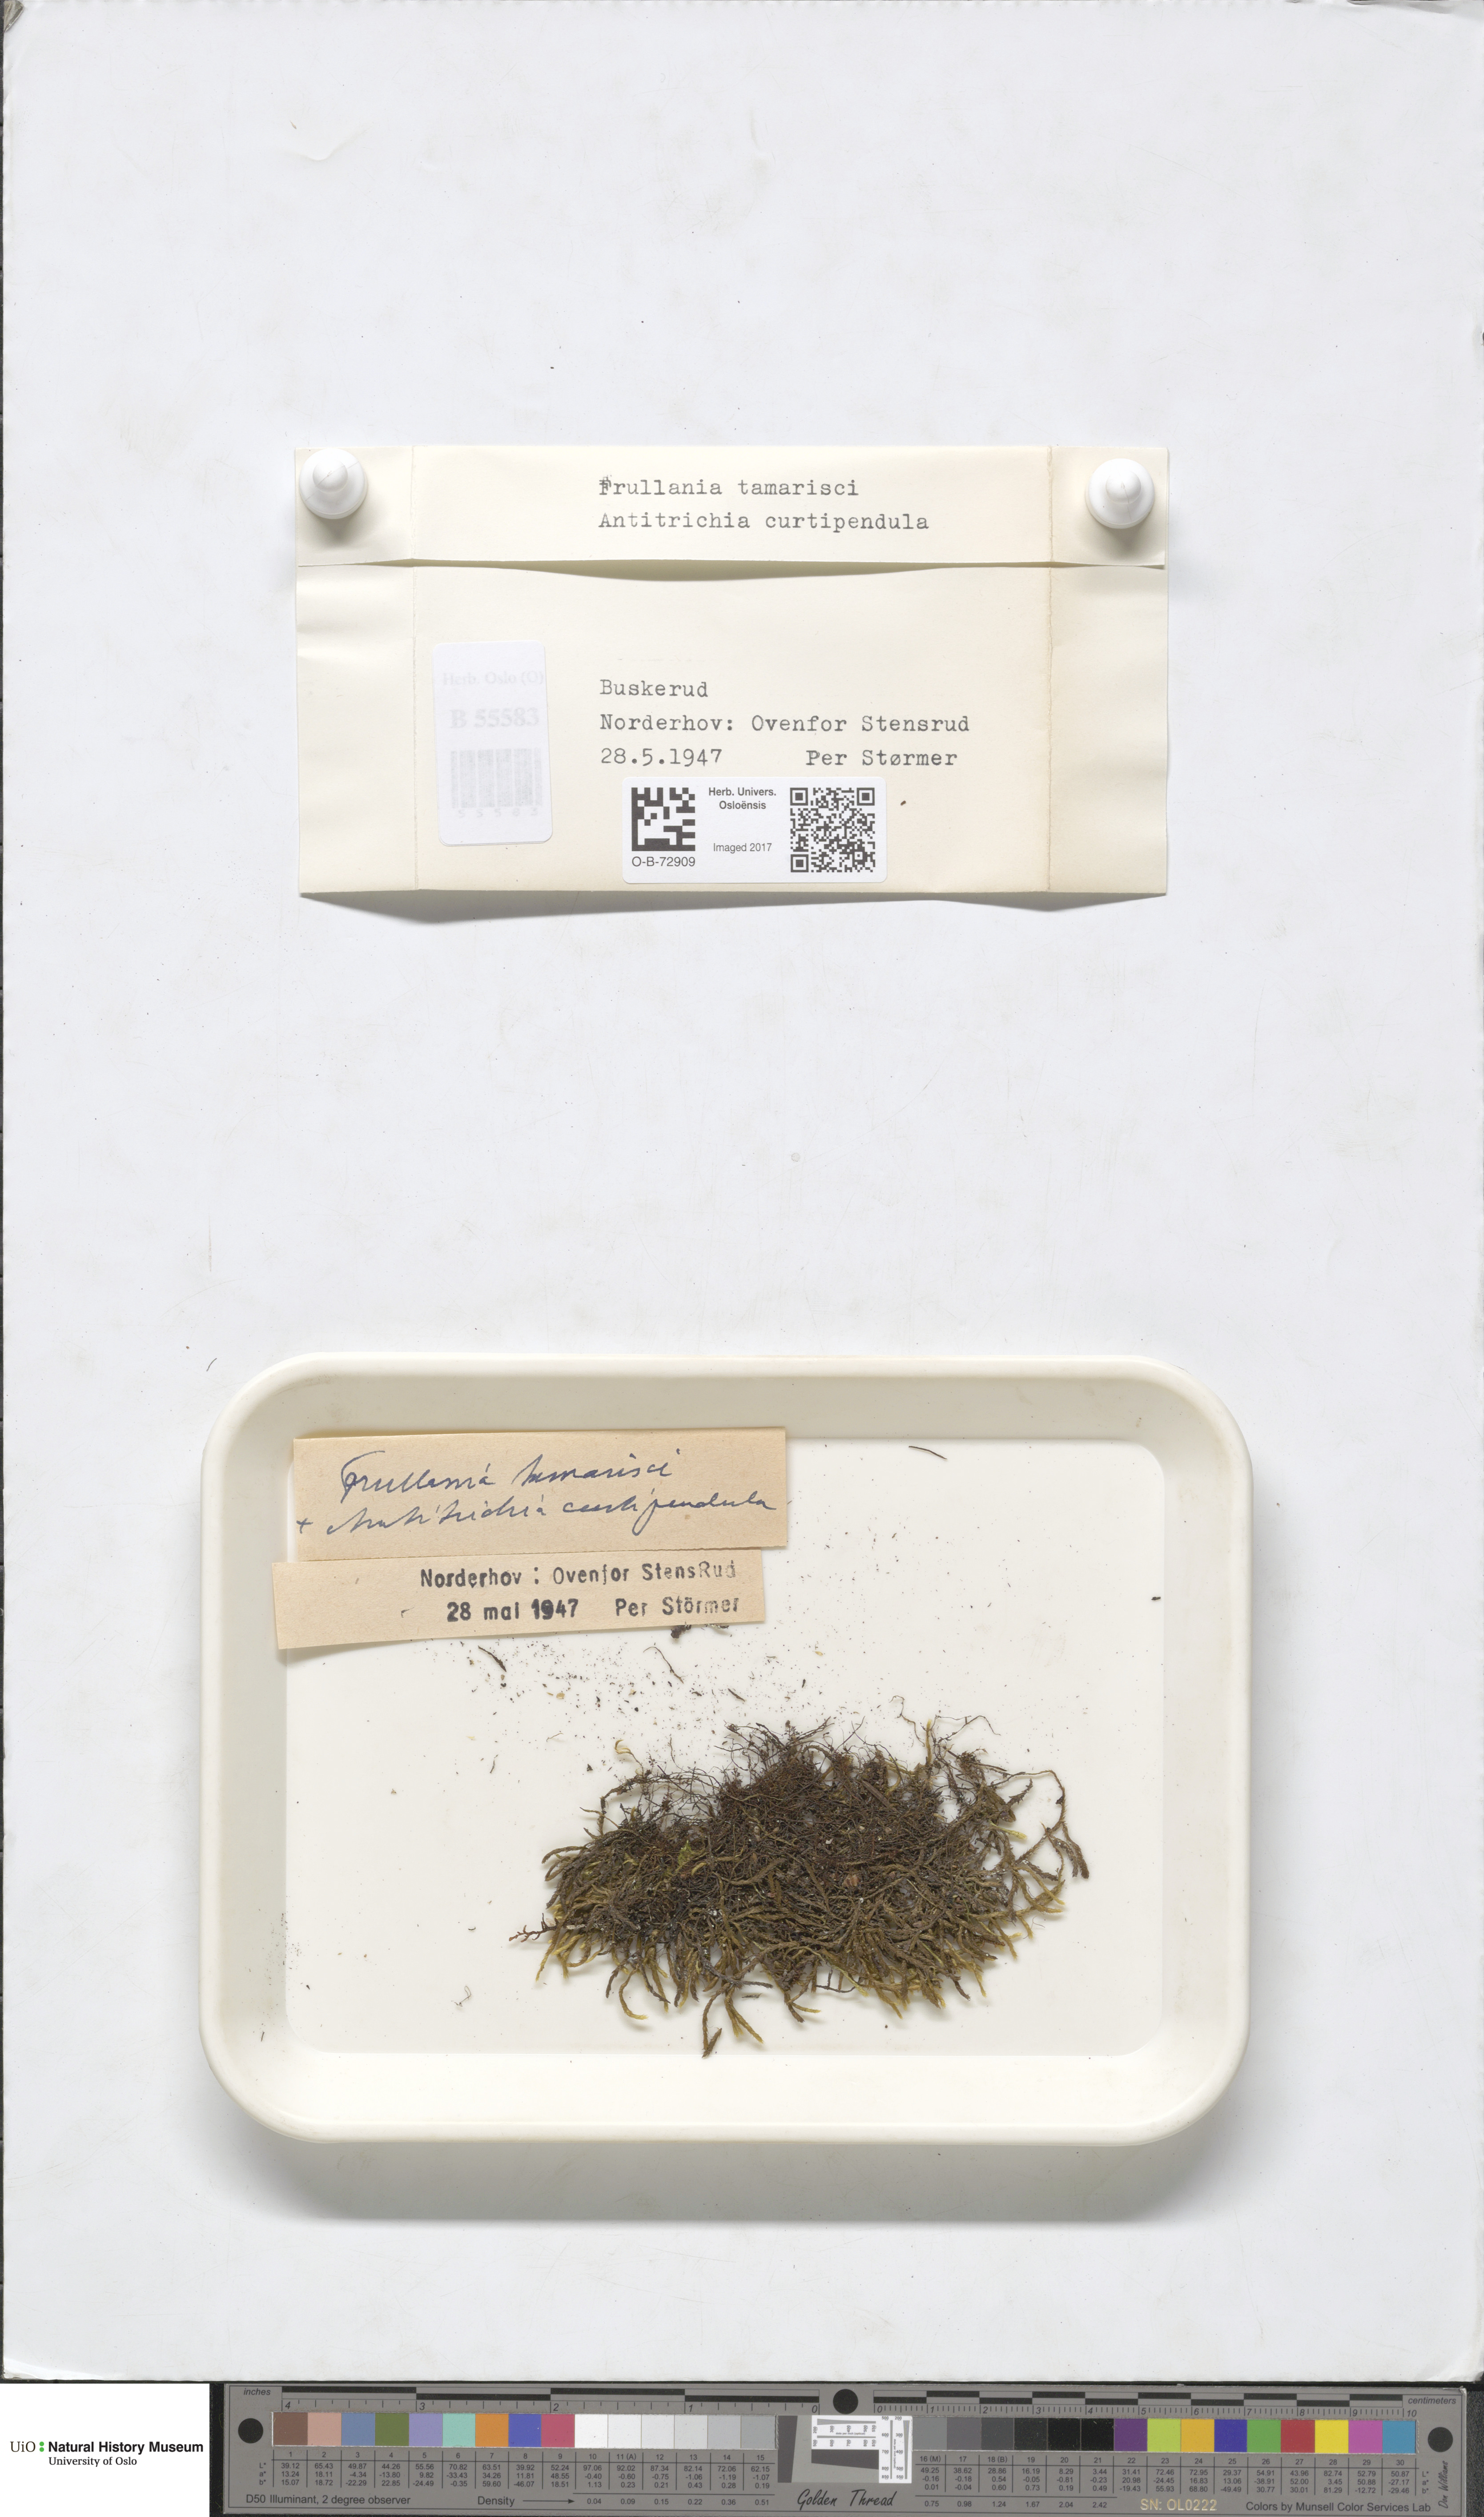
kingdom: Plantae
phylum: Marchantiophyta
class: Jungermanniopsida
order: Porellales
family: Frullaniaceae
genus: Frullania
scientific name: Frullania tamarisci
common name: Tamarisk scalewort
